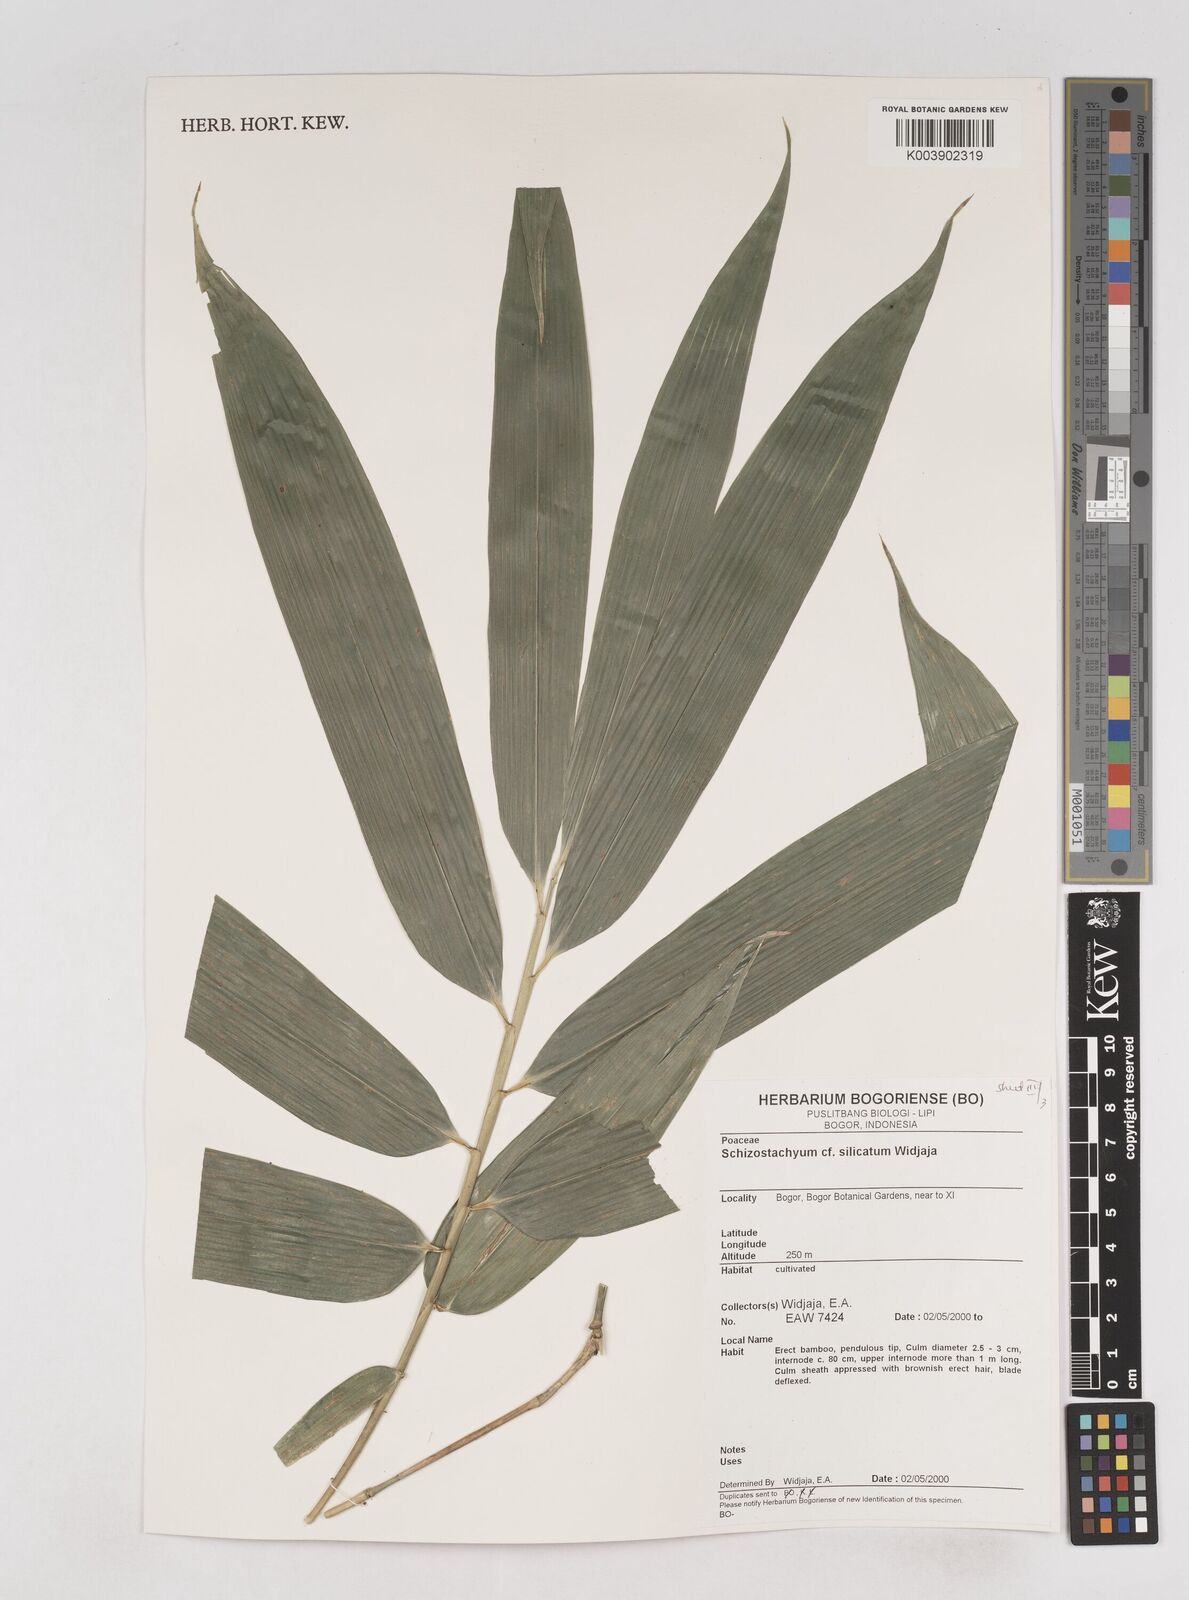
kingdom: Plantae
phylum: Tracheophyta
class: Liliopsida
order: Poales
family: Poaceae
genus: Schizostachyum
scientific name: Schizostachyum silicatum
